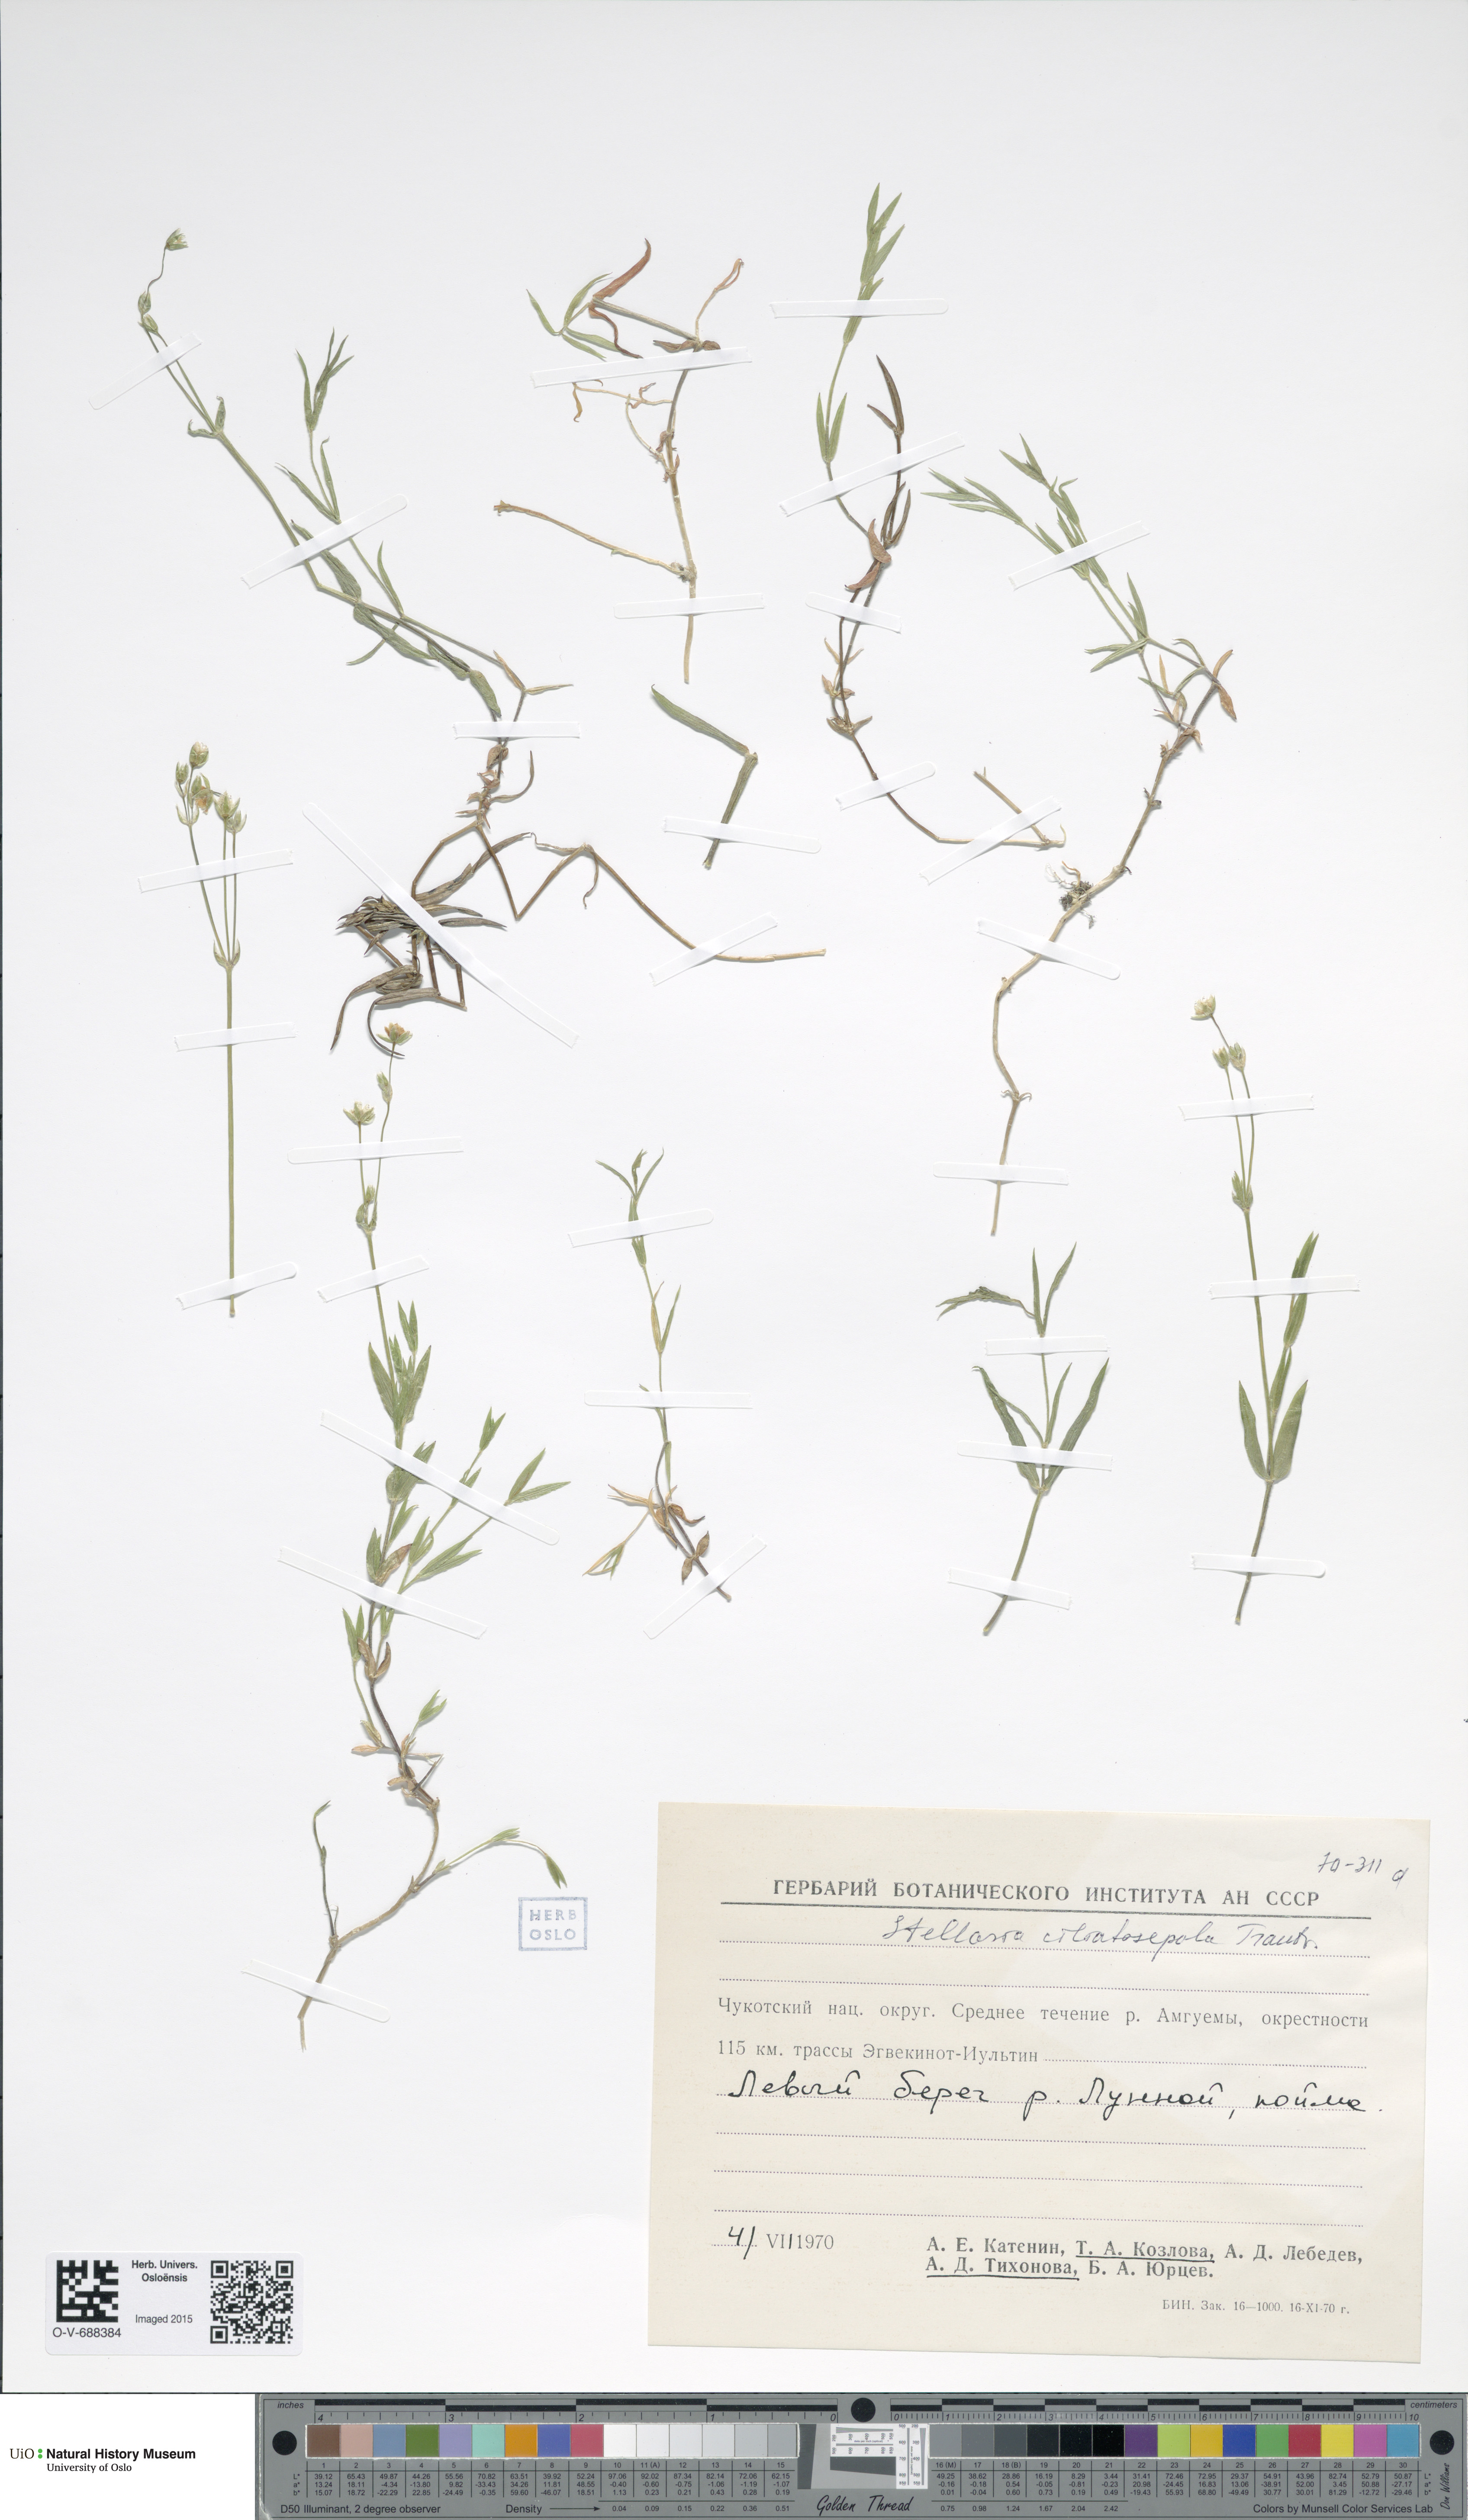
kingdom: Plantae
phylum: Tracheophyta
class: Magnoliopsida
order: Caryophyllales
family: Caryophyllaceae
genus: Stellaria
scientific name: Stellaria longipes
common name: Goldie's starwort
